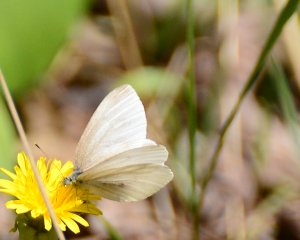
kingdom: Animalia
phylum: Arthropoda
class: Insecta
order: Lepidoptera
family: Pieridae
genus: Pieris
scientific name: Pieris virginiensis
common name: West Virginia White
